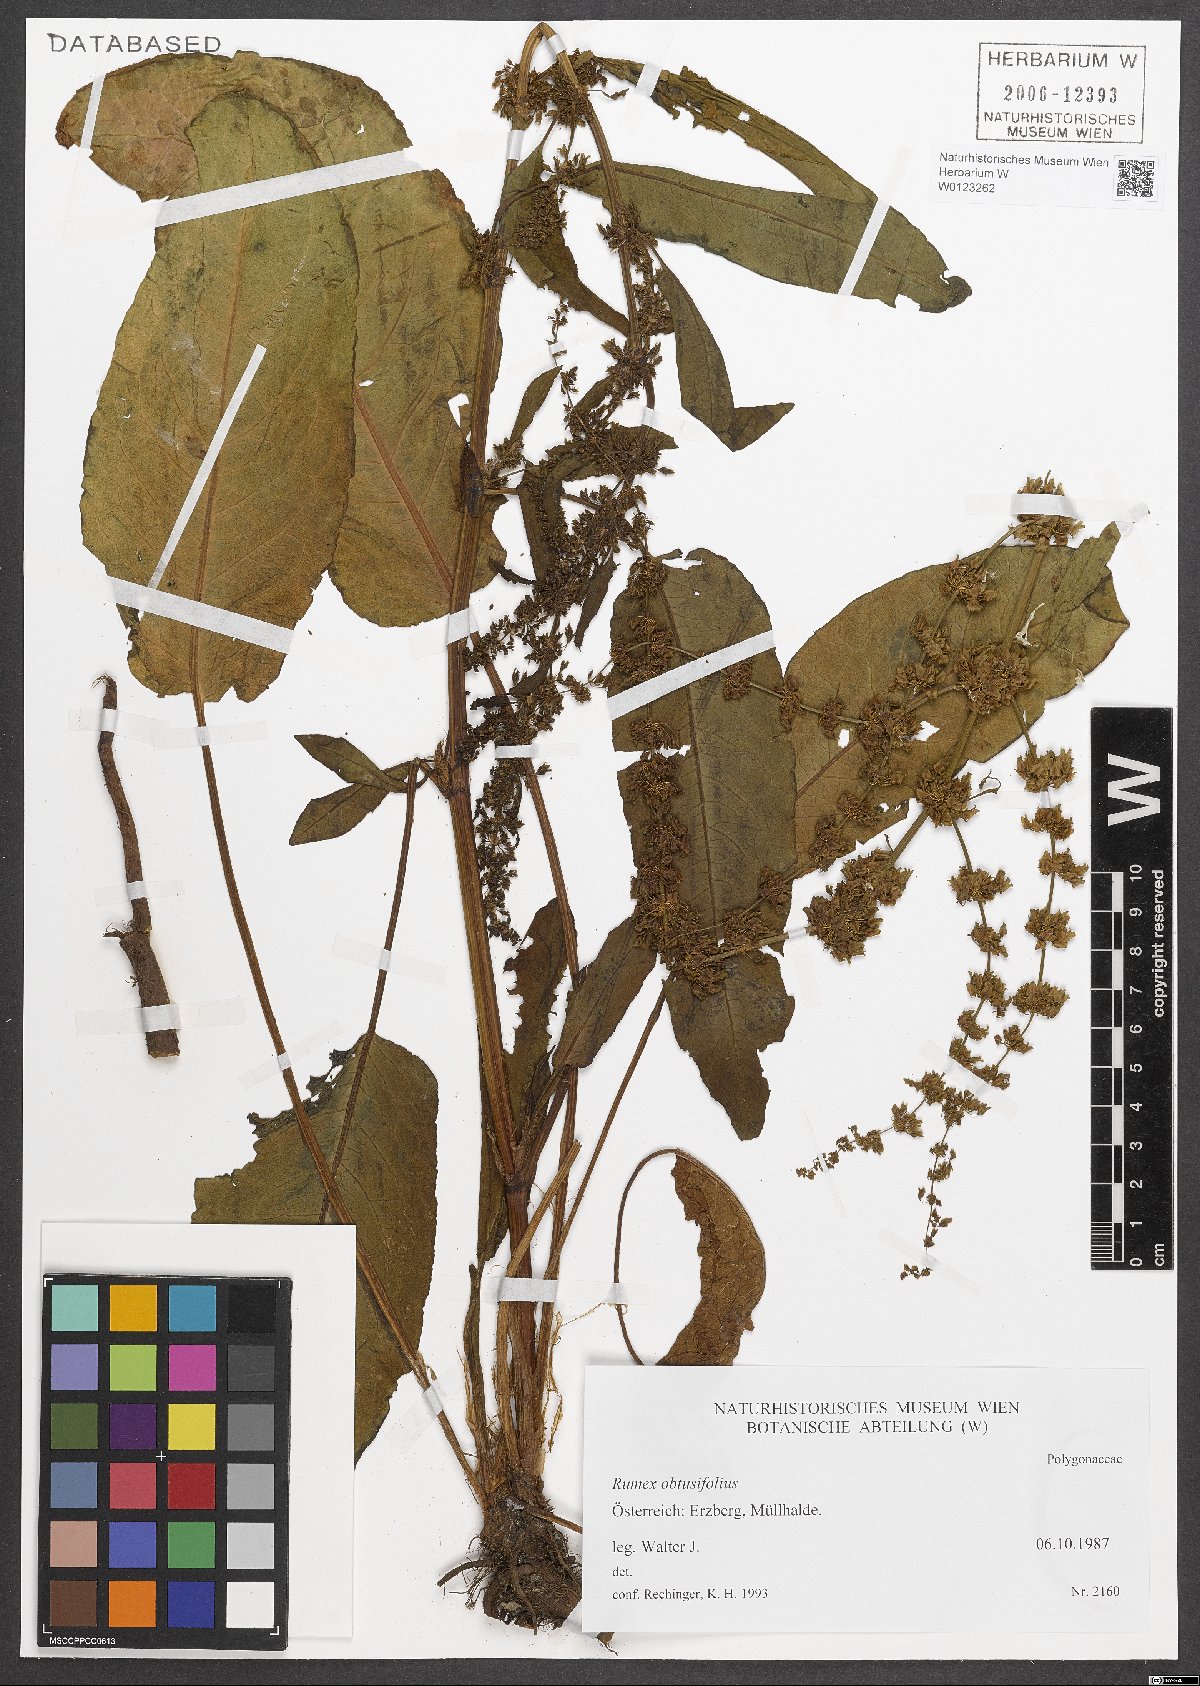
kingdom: Plantae
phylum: Tracheophyta
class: Magnoliopsida
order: Caryophyllales
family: Polygonaceae
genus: Rumex
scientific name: Rumex obtusifolius
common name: Bitter dock
